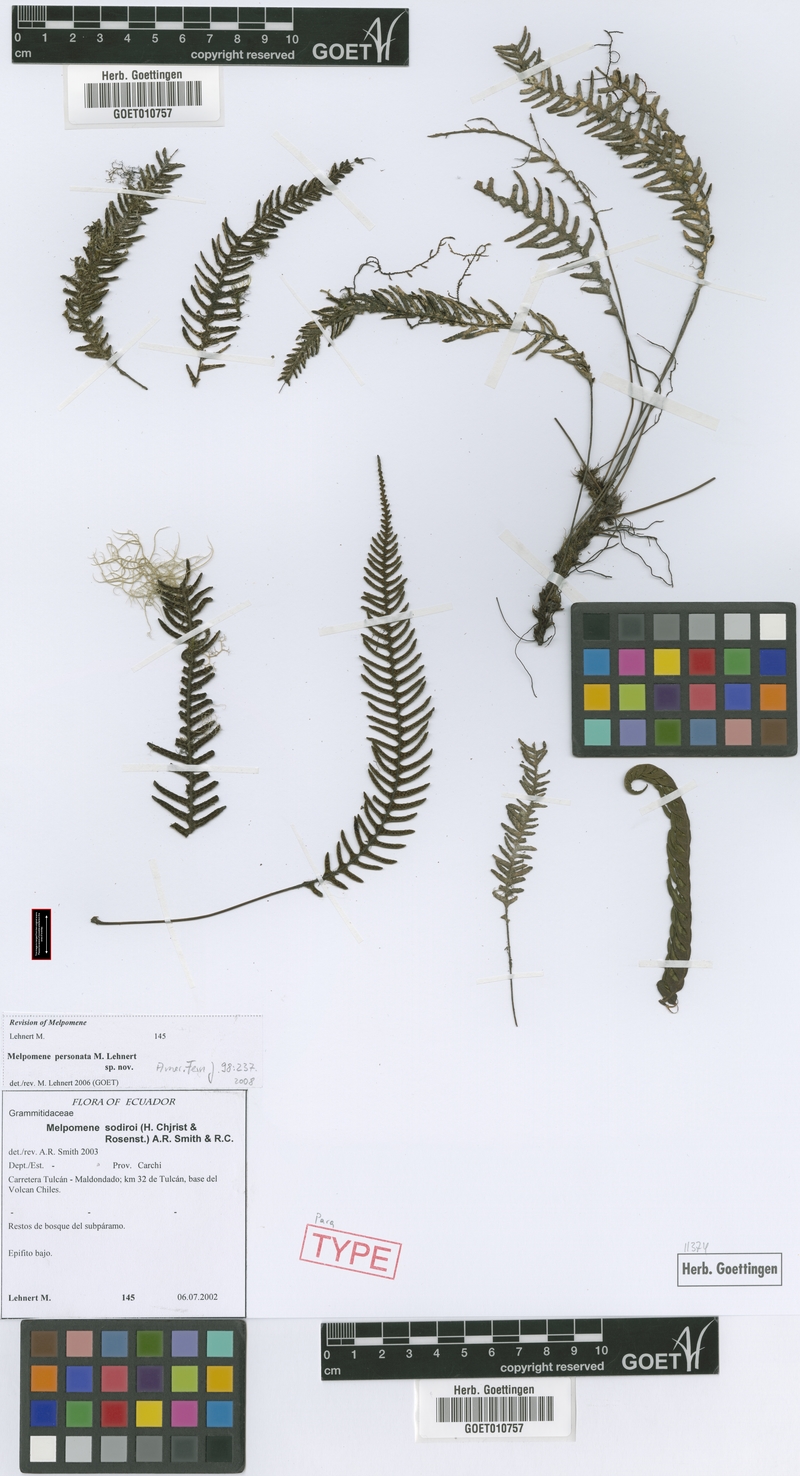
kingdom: Plantae
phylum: Tracheophyta
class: Polypodiopsida
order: Polypodiales
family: Polypodiaceae
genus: Melpomene
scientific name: Melpomene personata
